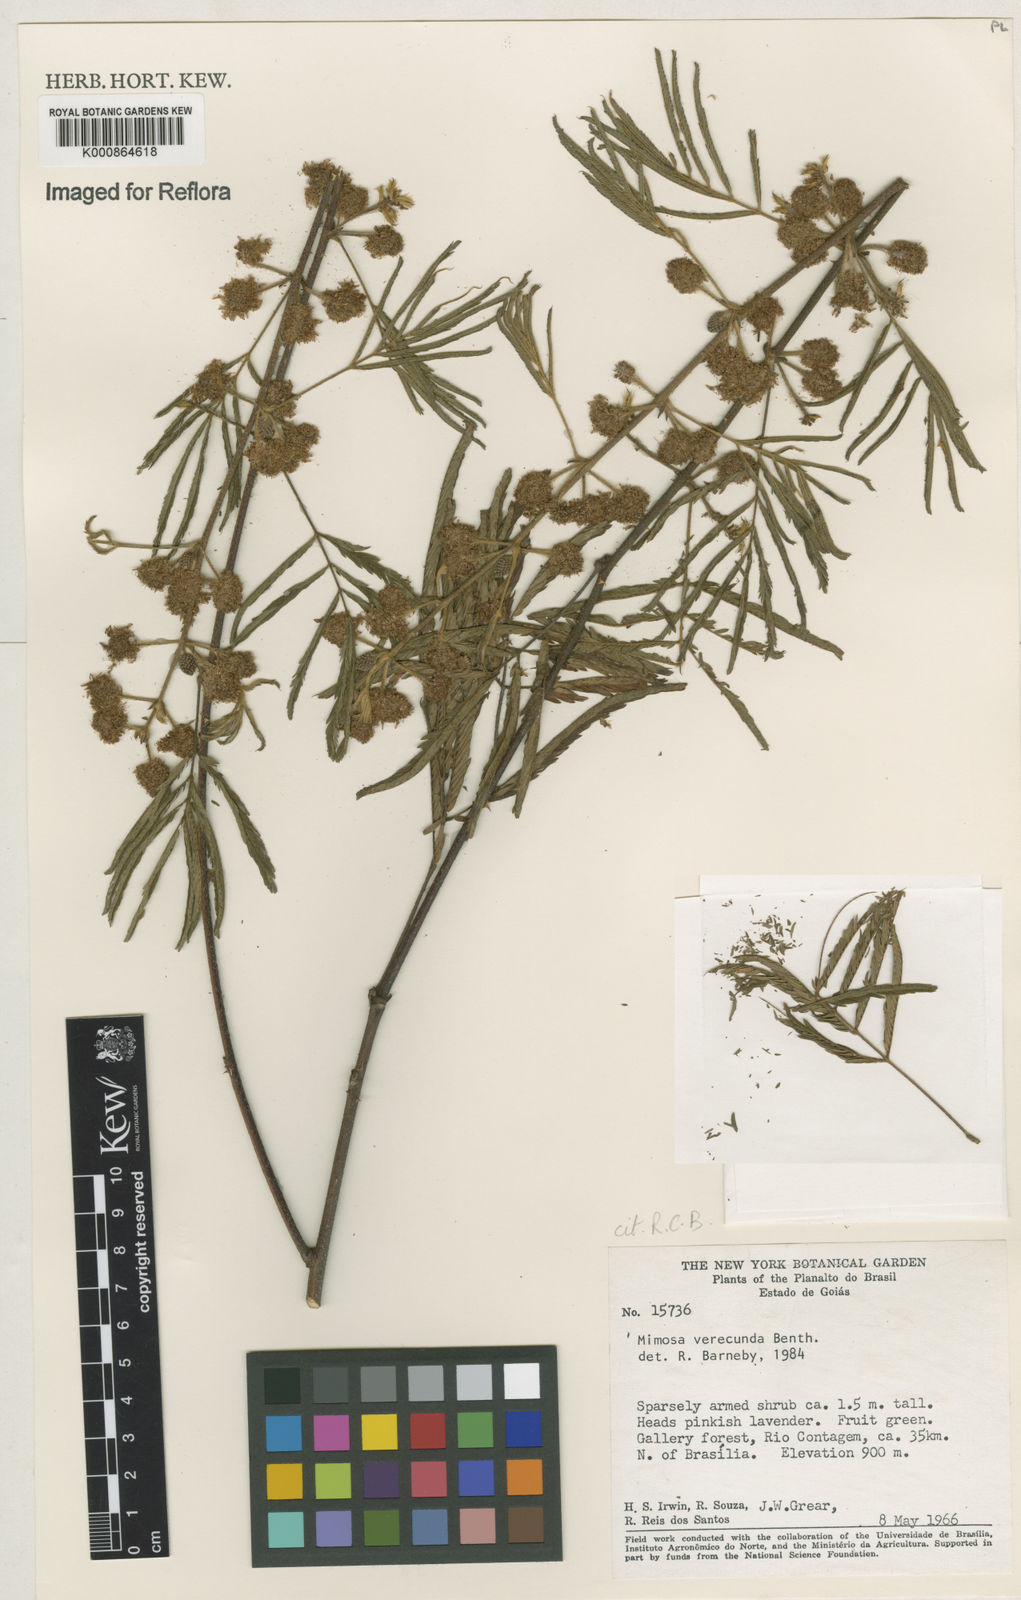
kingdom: Plantae
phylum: Tracheophyta
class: Magnoliopsida
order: Fabales
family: Fabaceae
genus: Mimosa
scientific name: Mimosa verecunda
